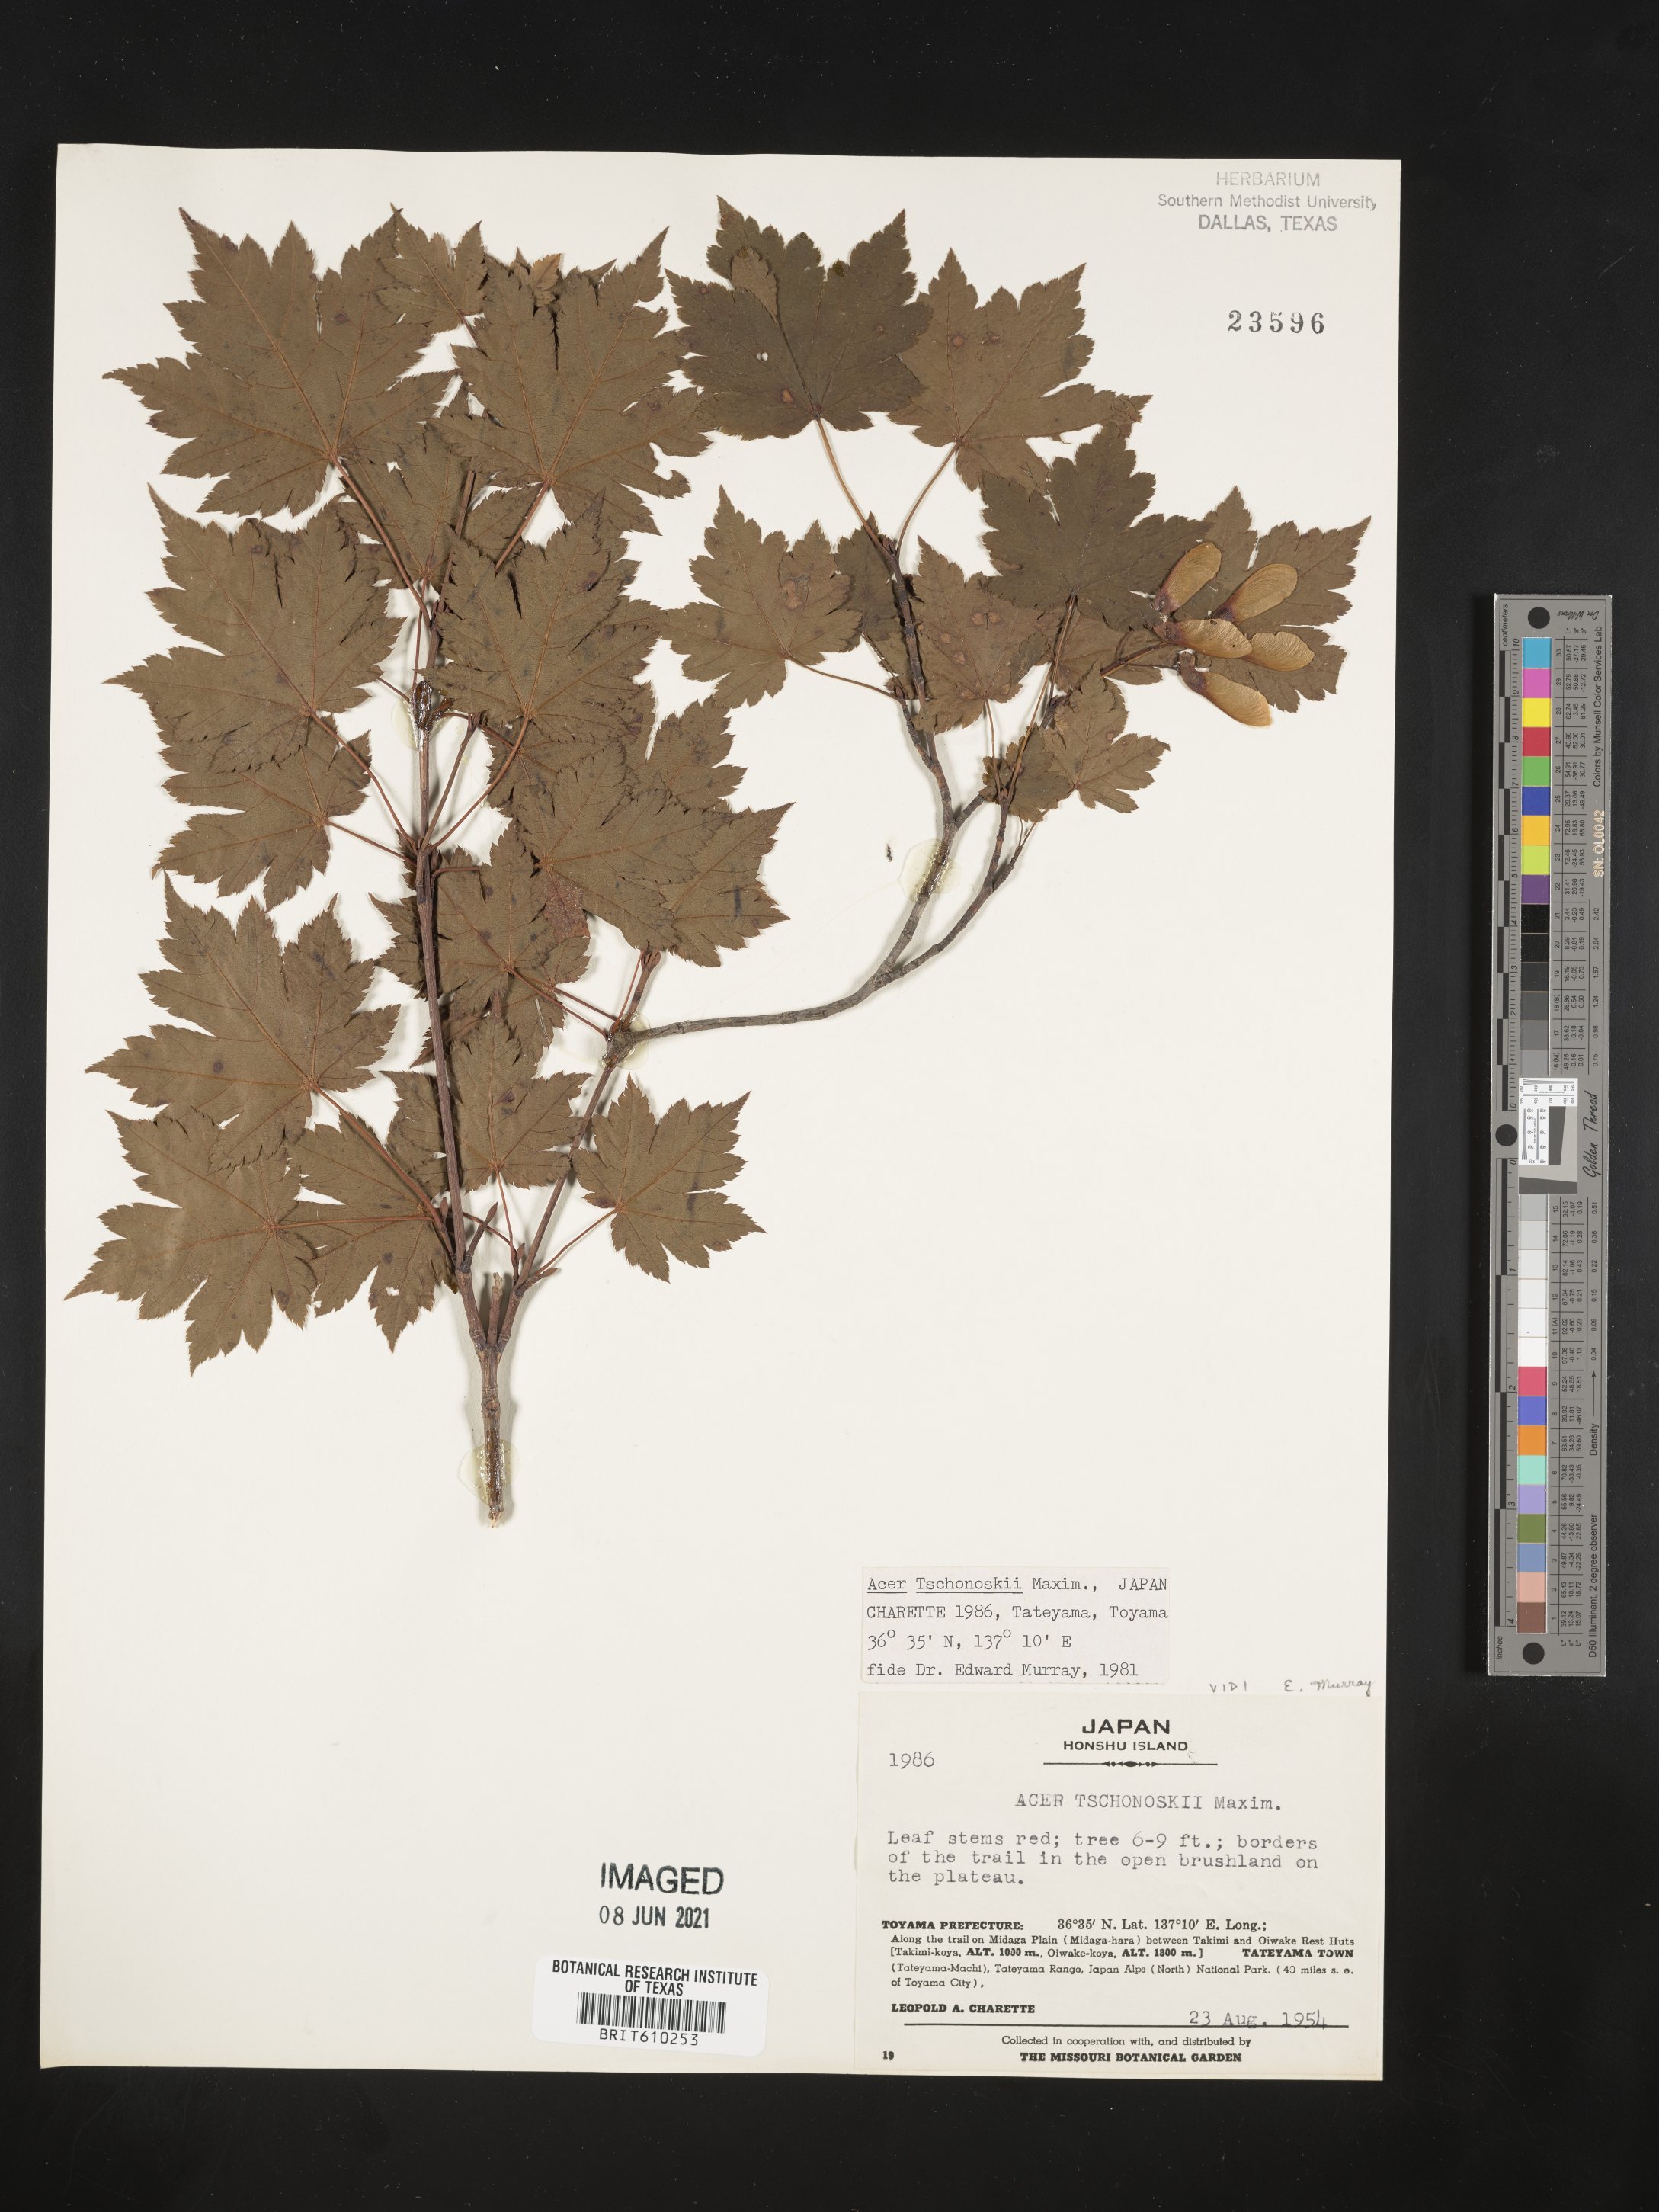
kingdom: Plantae
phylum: Tracheophyta
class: Magnoliopsida
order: Sapindales
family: Sapindaceae
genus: Acer
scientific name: Acer tschonoskii
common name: Tschonoski’s maple
